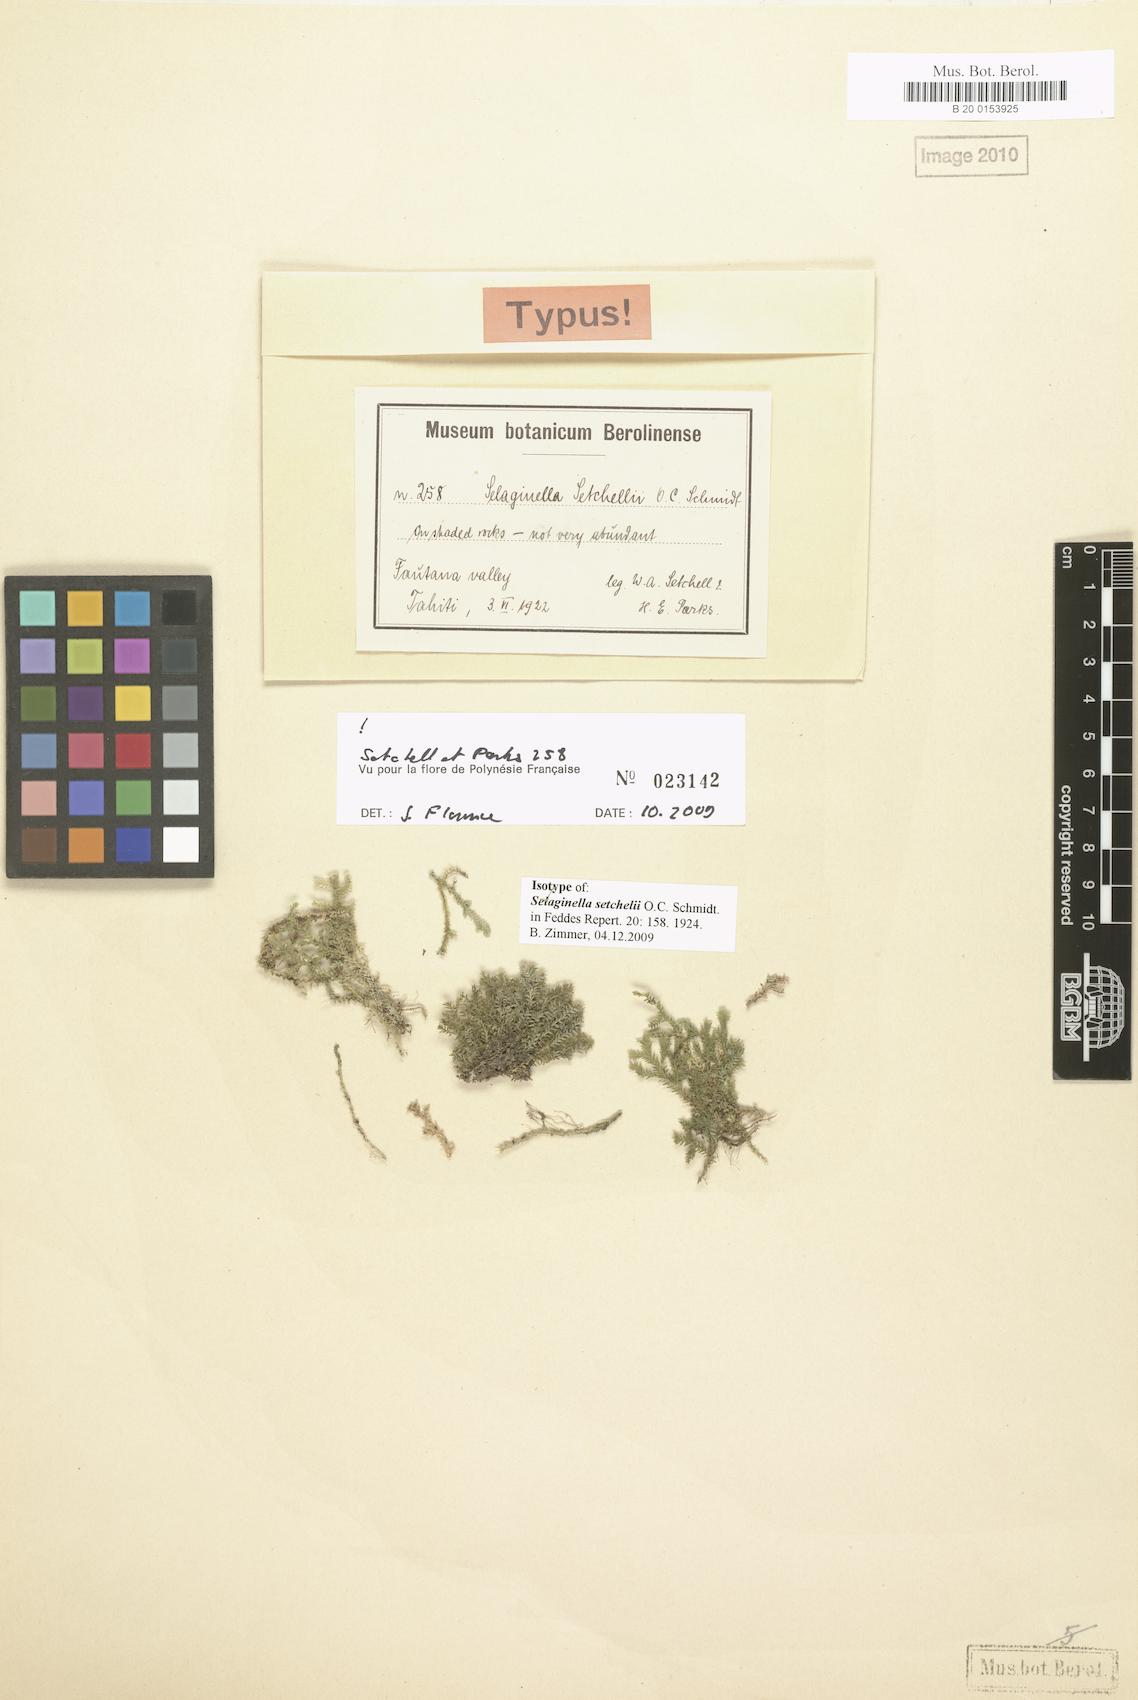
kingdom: Plantae
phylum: Tracheophyta
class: Lycopodiopsida
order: Selaginellales
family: Selaginellaceae
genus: Selaginella
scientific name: Selaginella setchellii
